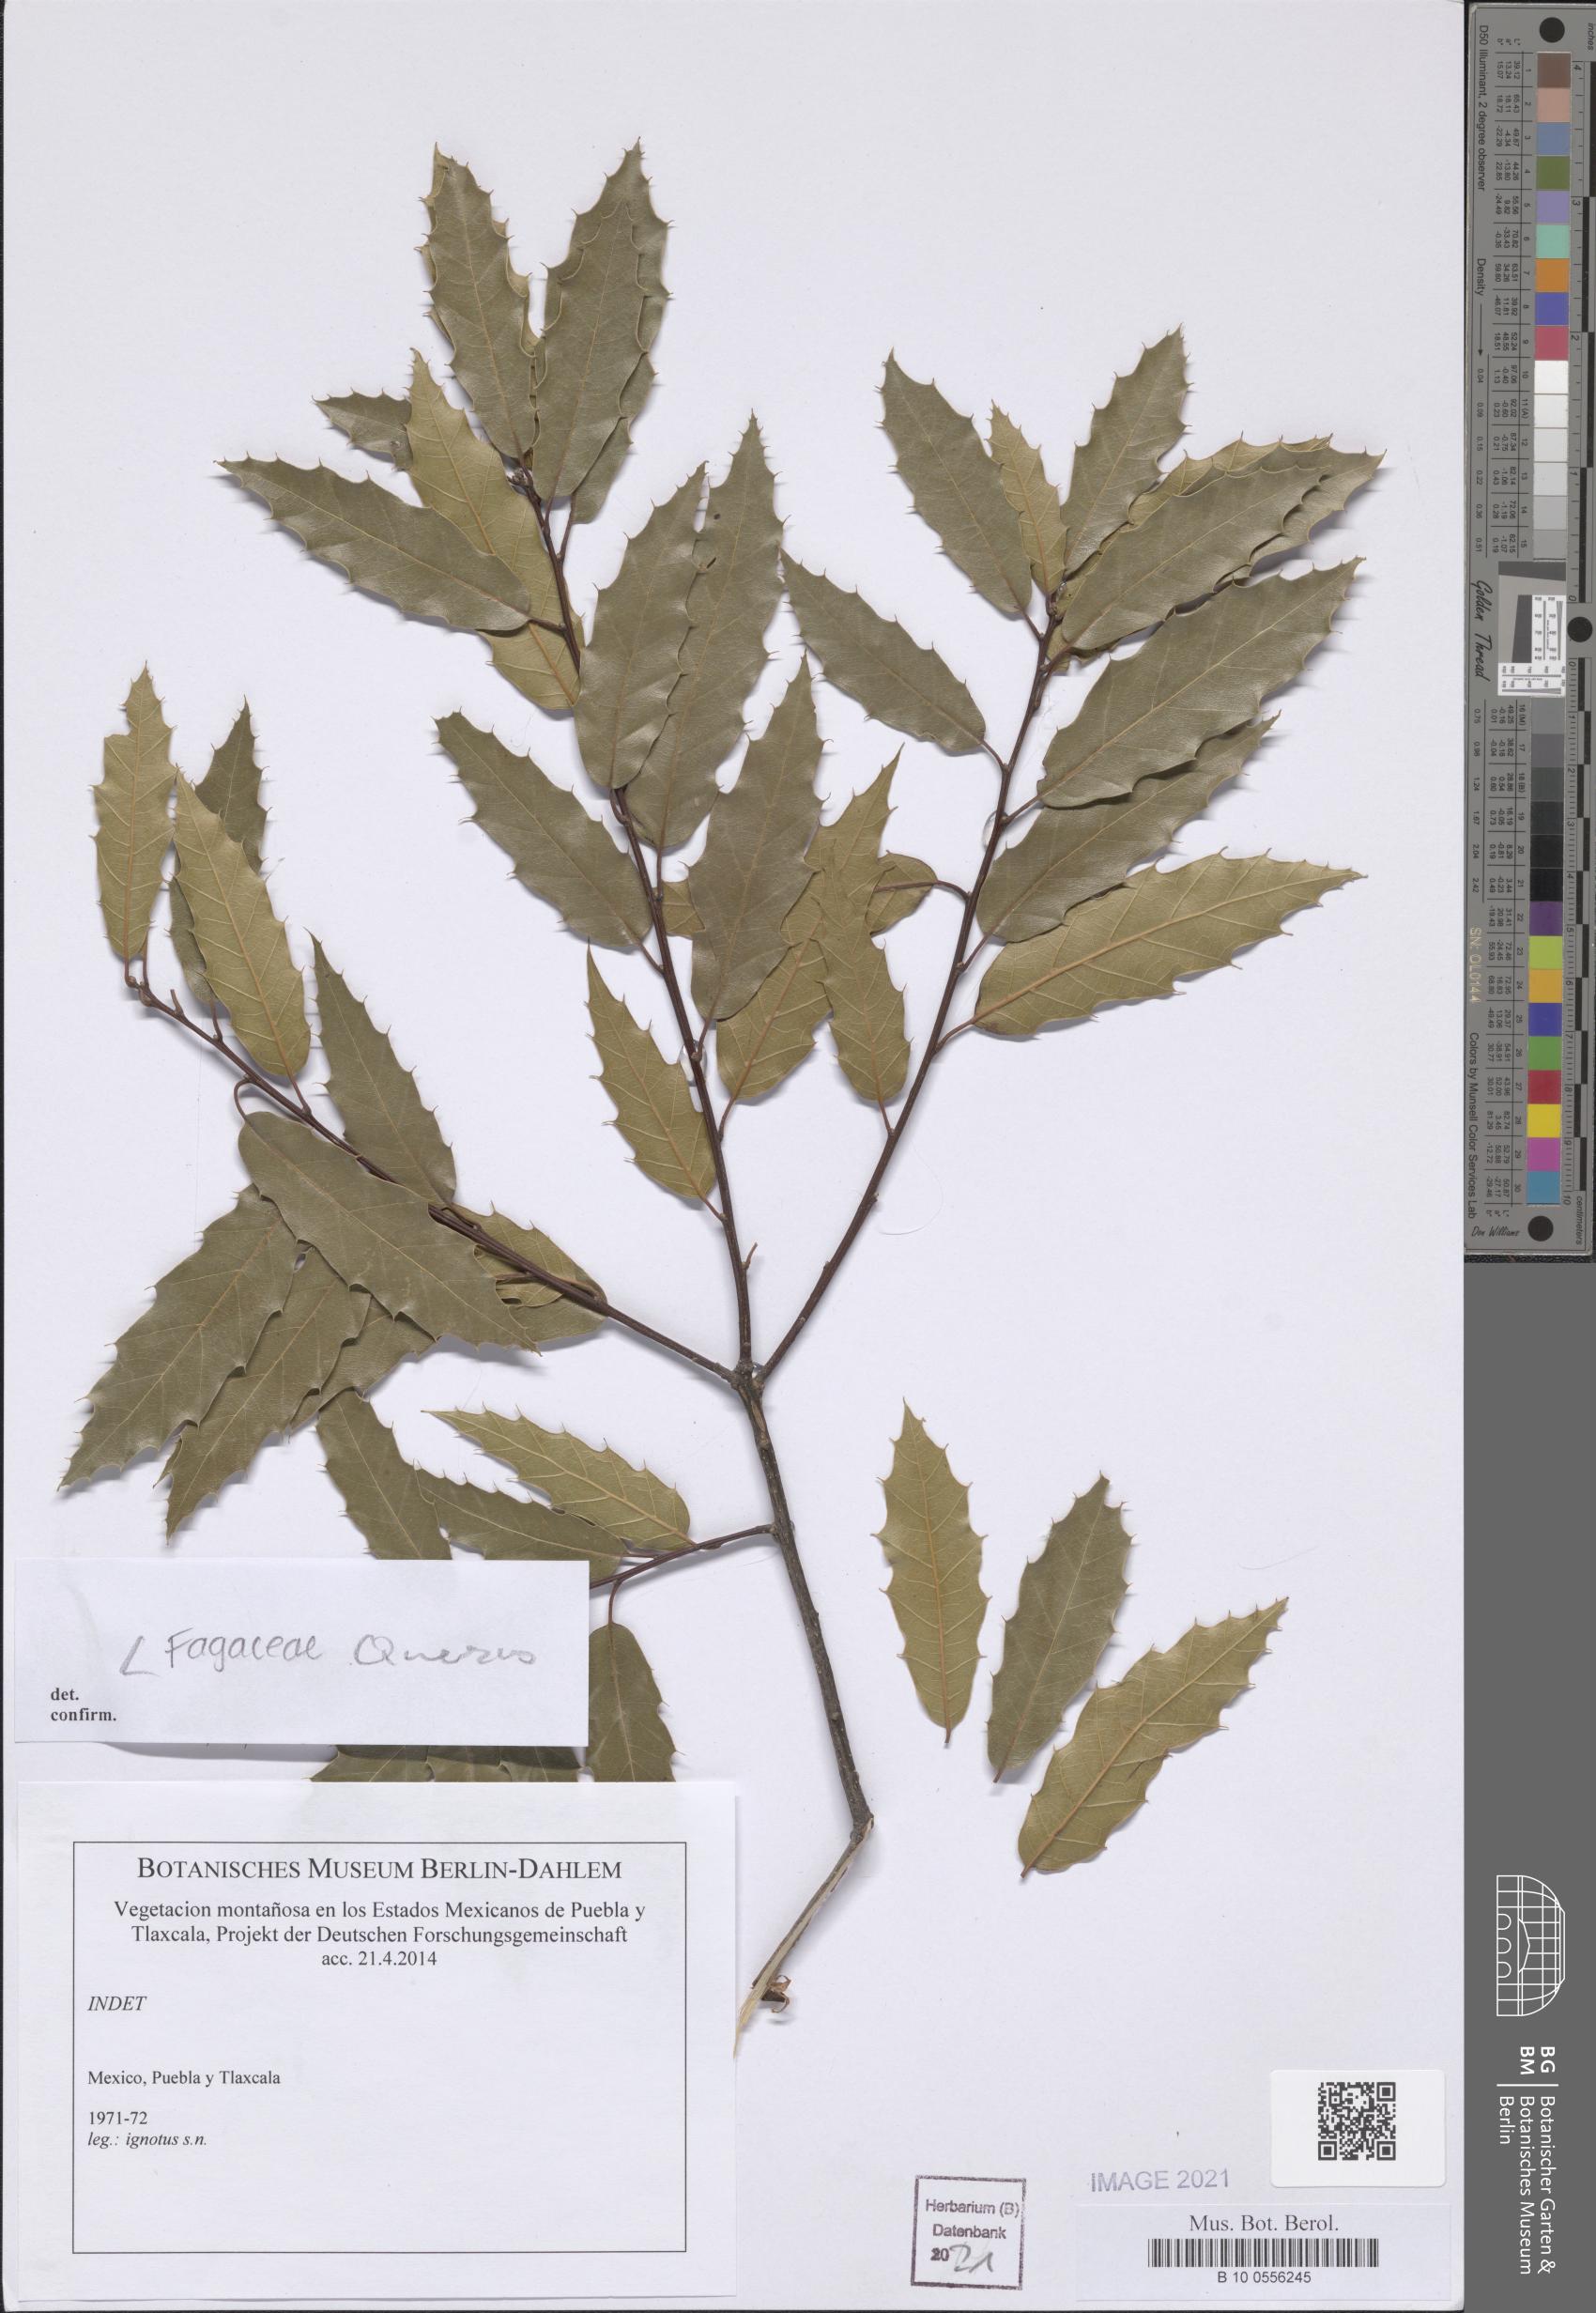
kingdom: Plantae
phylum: Tracheophyta
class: Magnoliopsida
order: Fagales
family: Fagaceae
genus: Quercus
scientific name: Quercus
